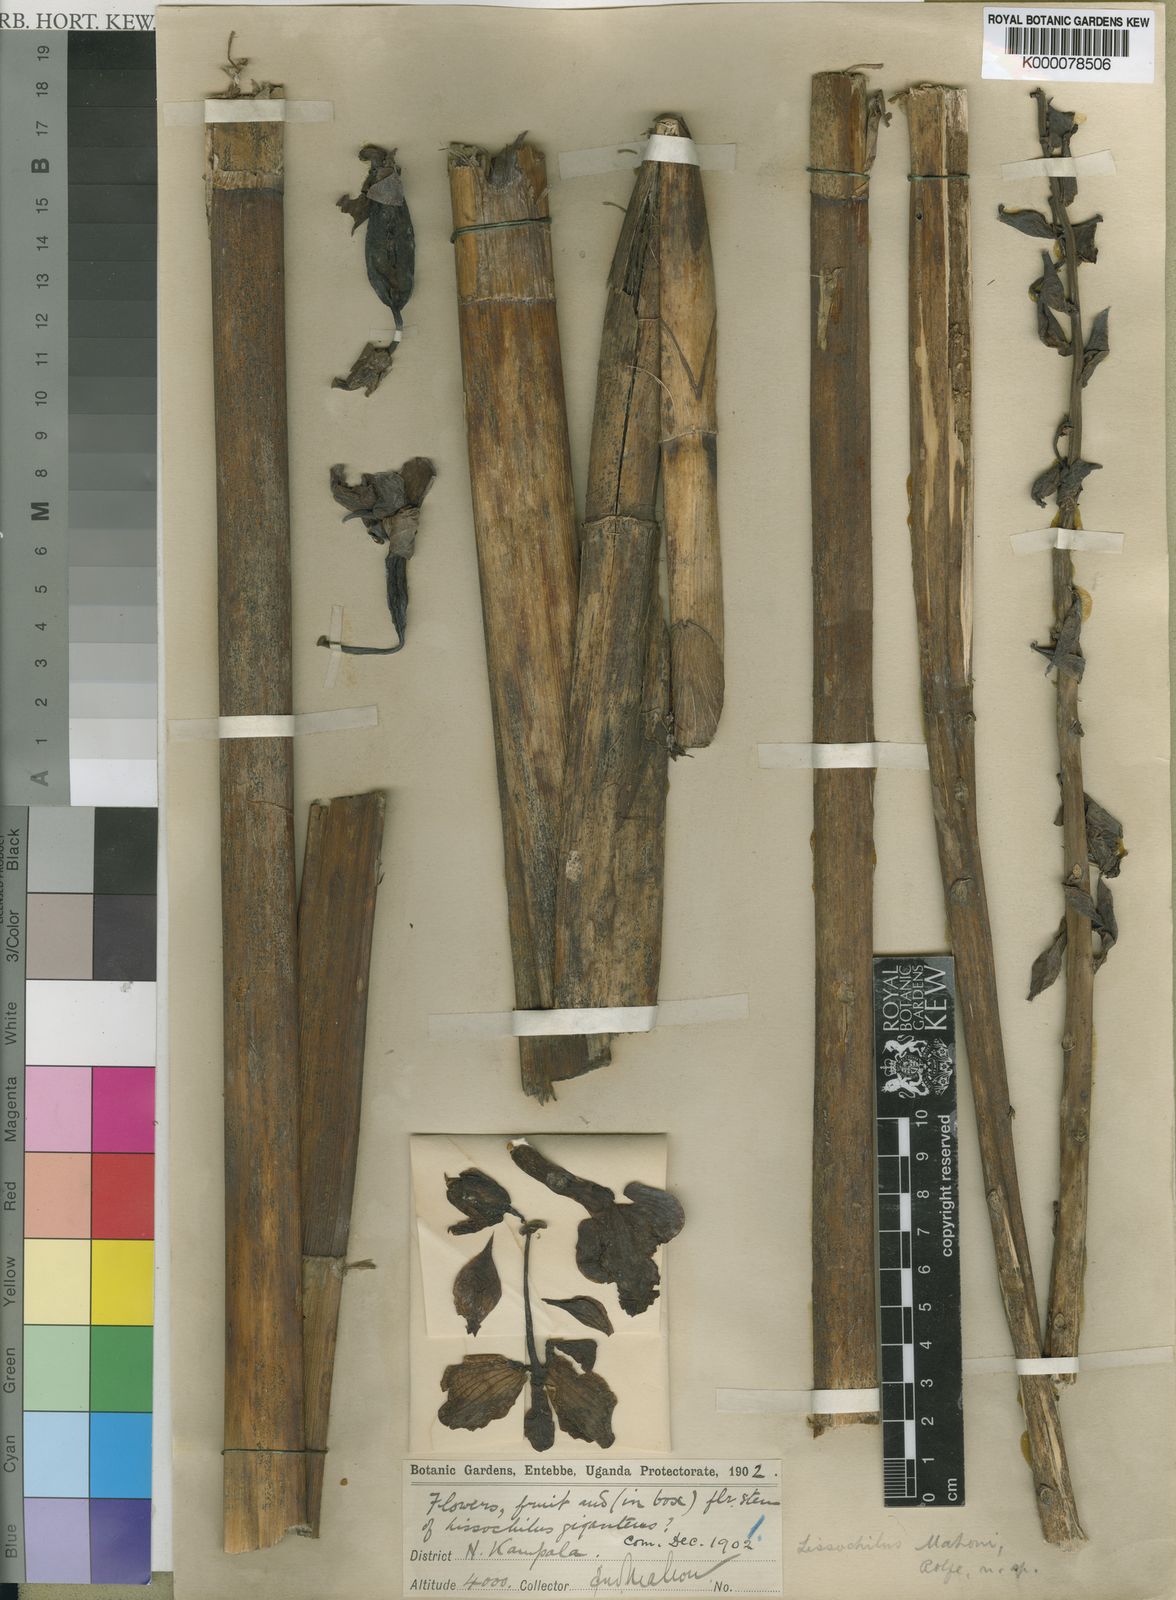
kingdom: Plantae
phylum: Tracheophyta
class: Liliopsida
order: Asparagales
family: Orchidaceae
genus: Eulophia
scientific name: Eulophia horsfallii
